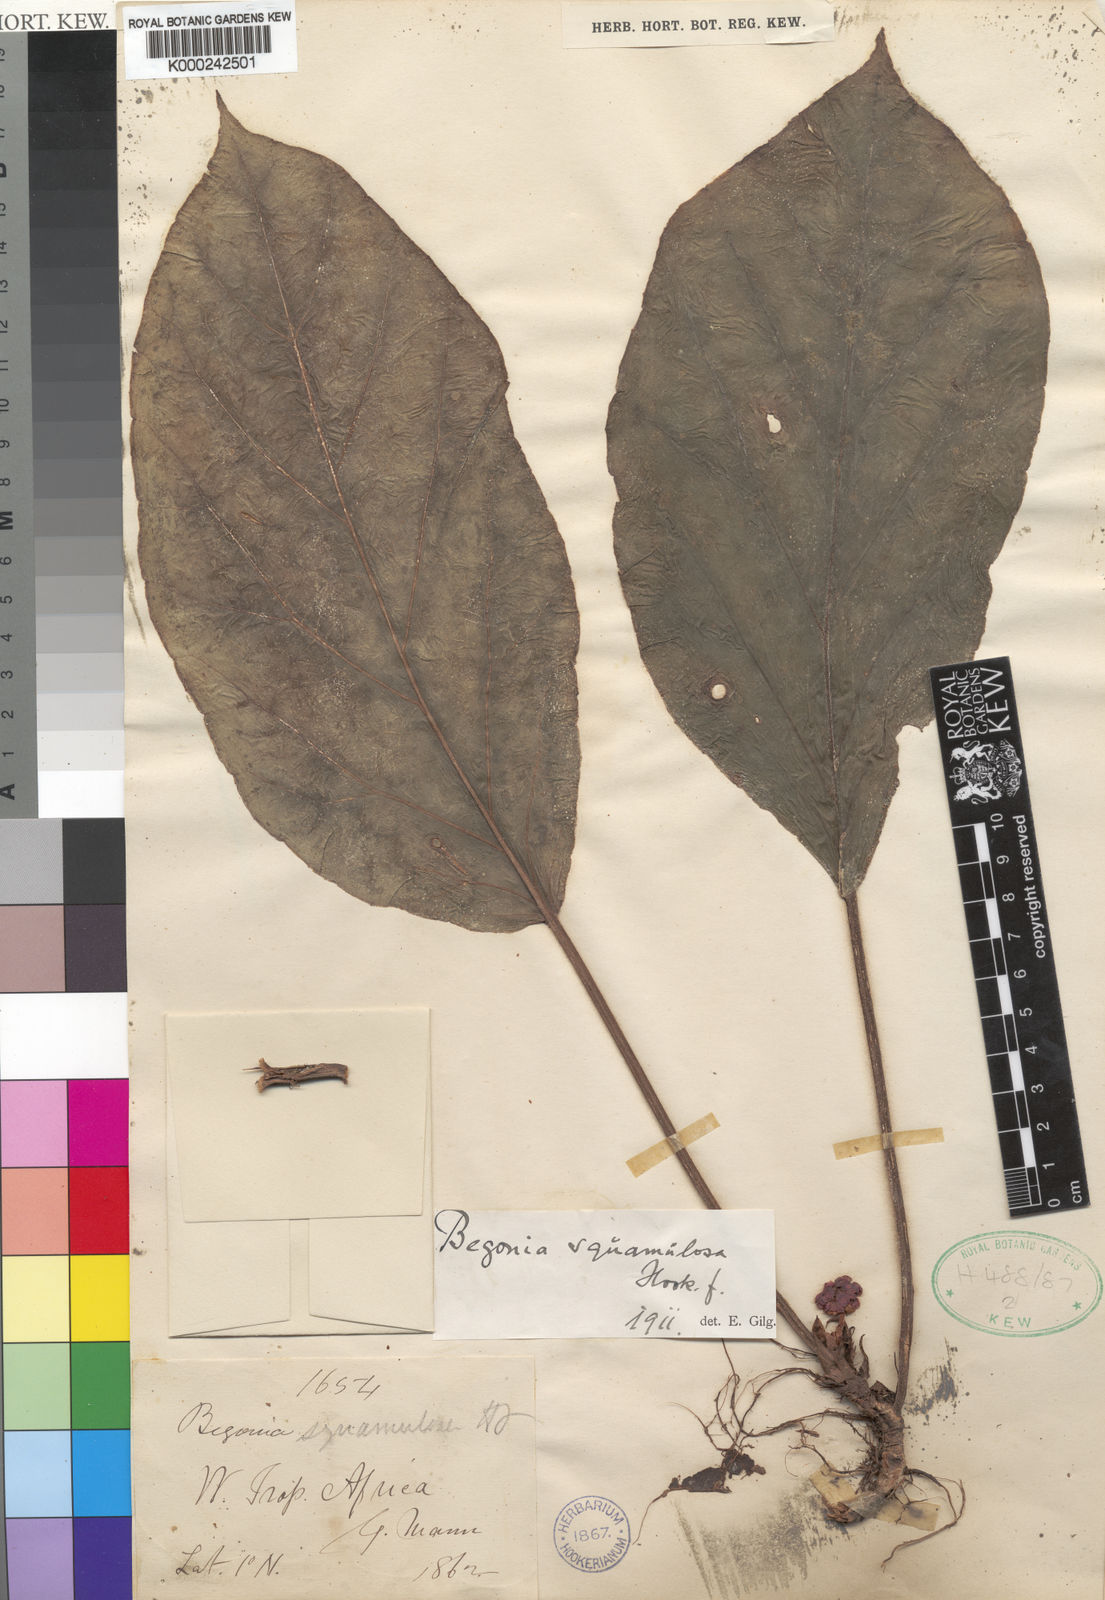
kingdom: Plantae
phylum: Tracheophyta
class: Magnoliopsida
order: Cucurbitales
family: Begoniaceae
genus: Begonia
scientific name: Begonia squamulosa
